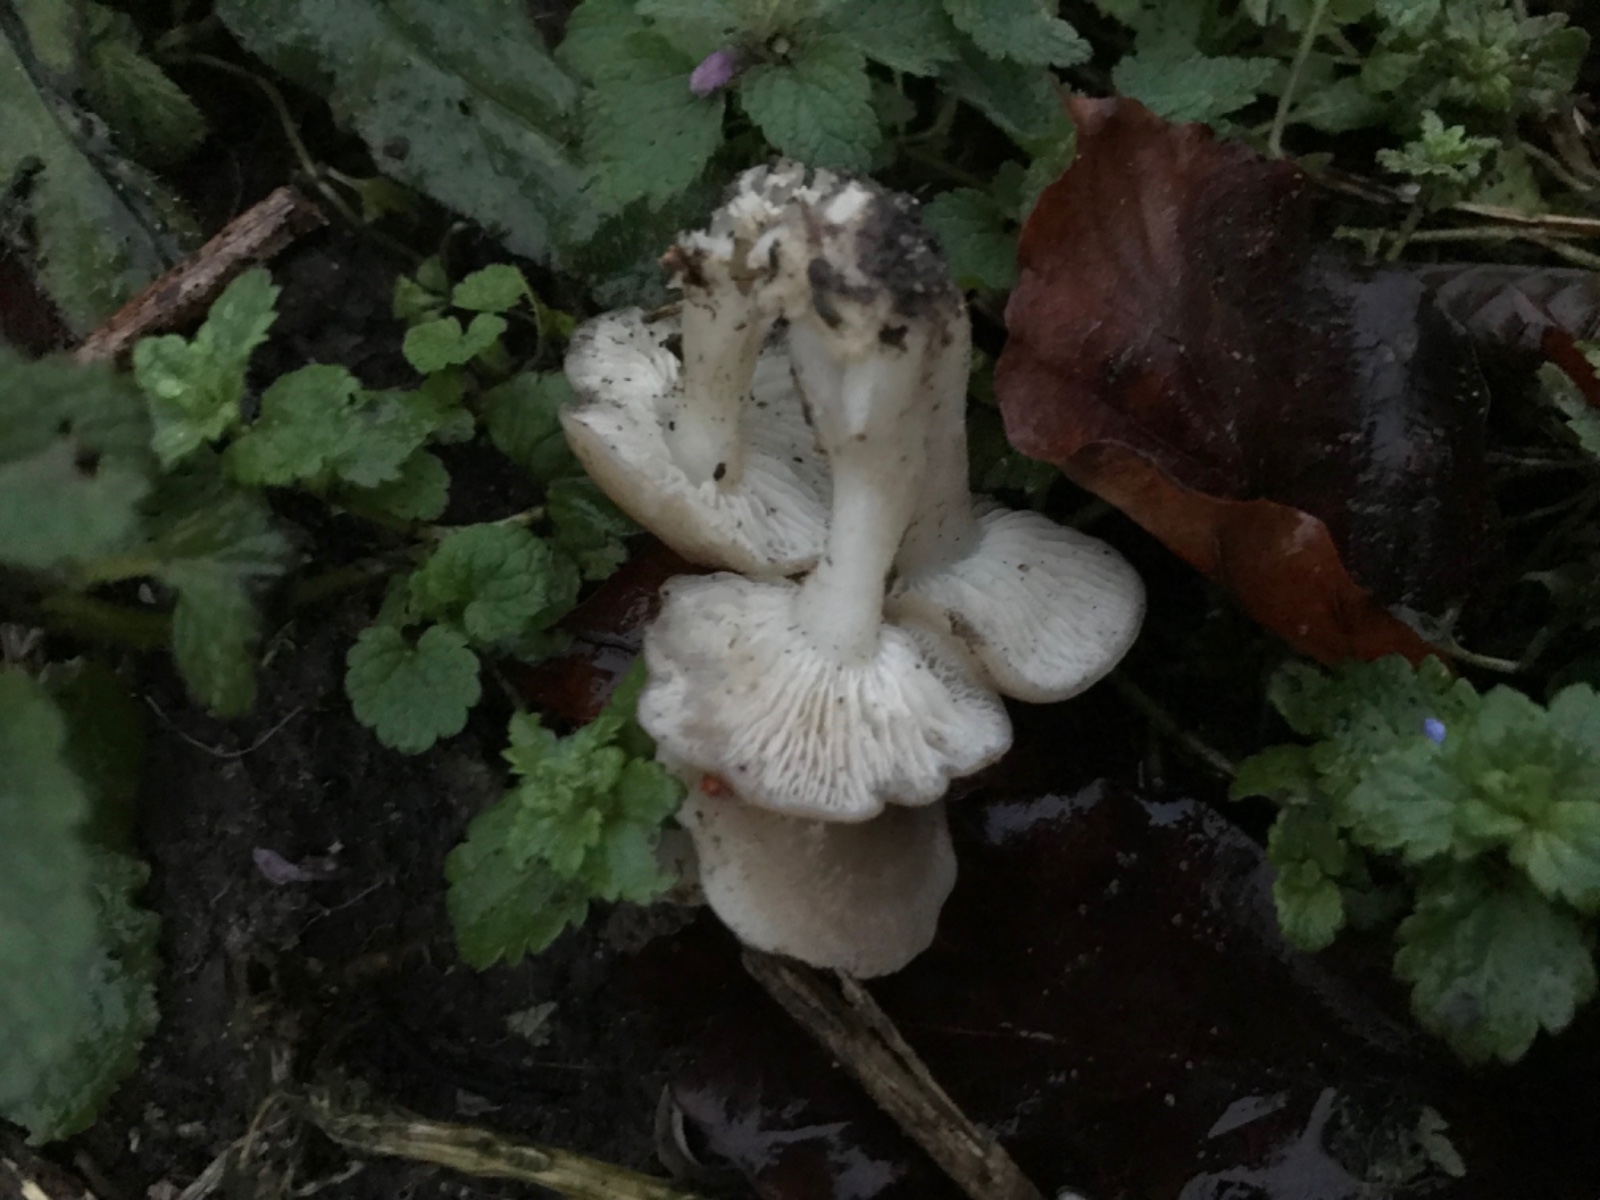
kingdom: Fungi
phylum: Basidiomycota
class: Agaricomycetes
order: Agaricales
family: Tricholomataceae
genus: Leucocybe
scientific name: Leucocybe connata
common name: knippe-tragthat
